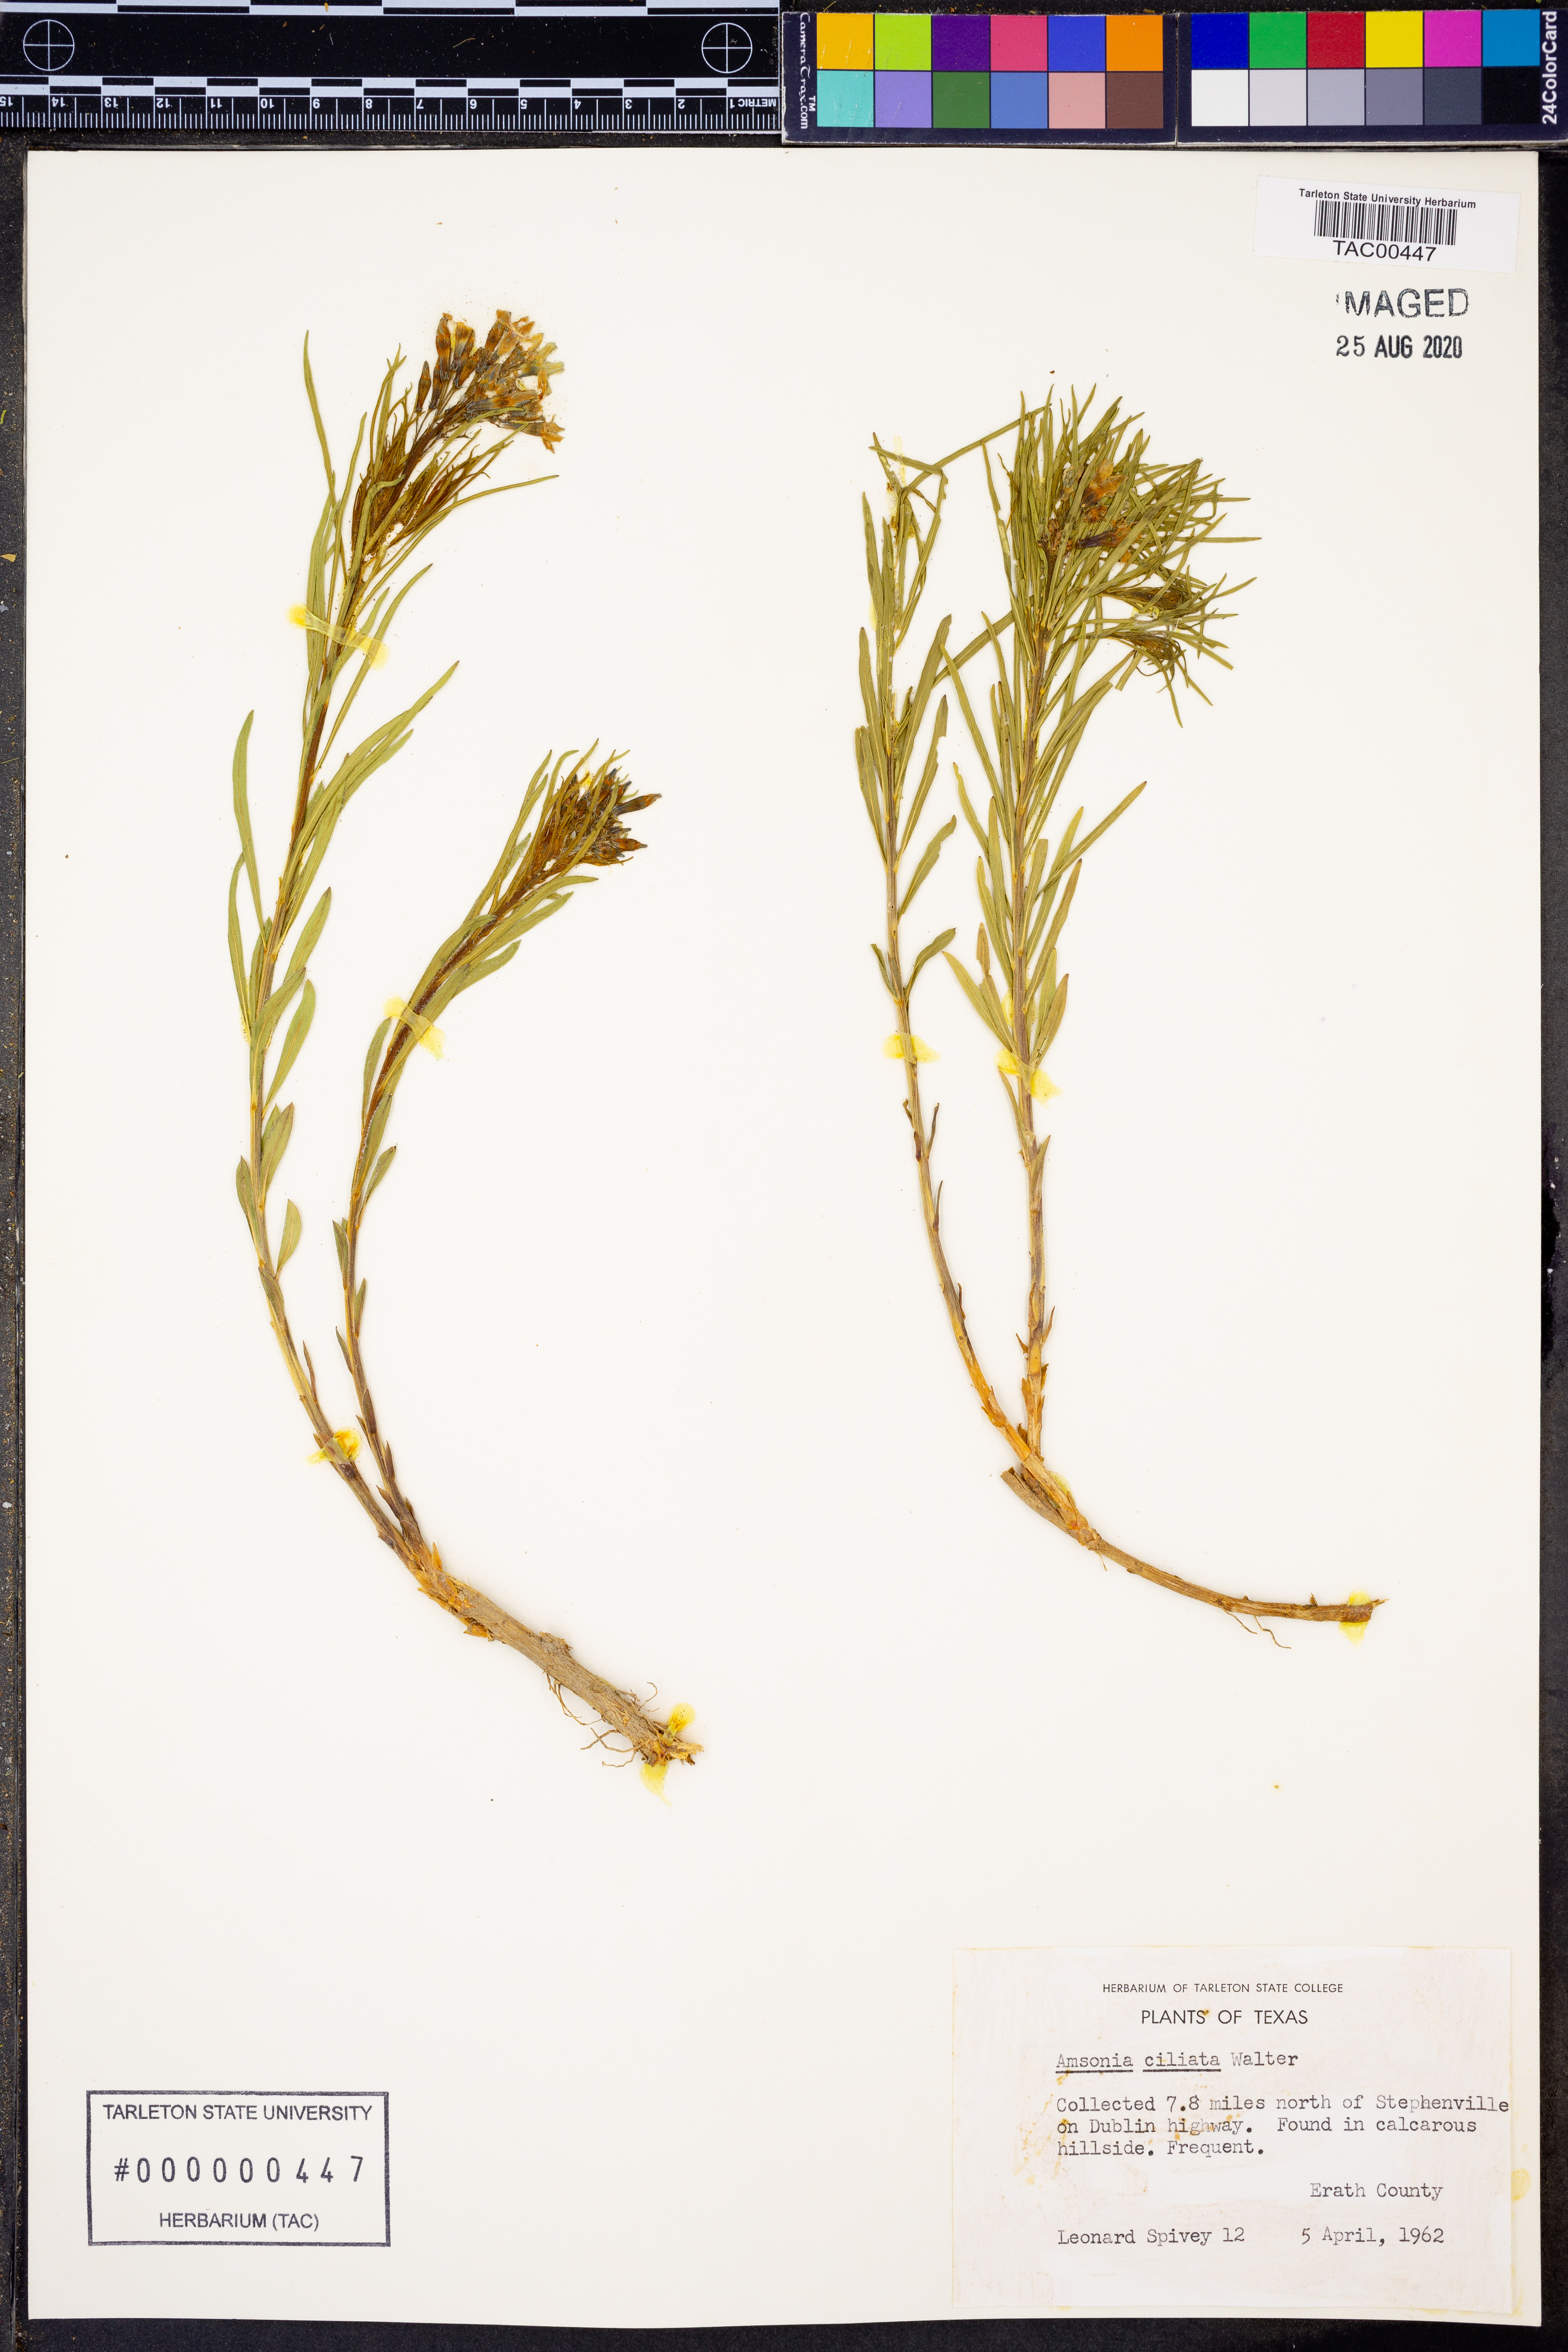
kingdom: Plantae
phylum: Tracheophyta
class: Magnoliopsida
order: Gentianales
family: Apocynaceae
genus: Amsonia
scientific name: Amsonia ciliata
